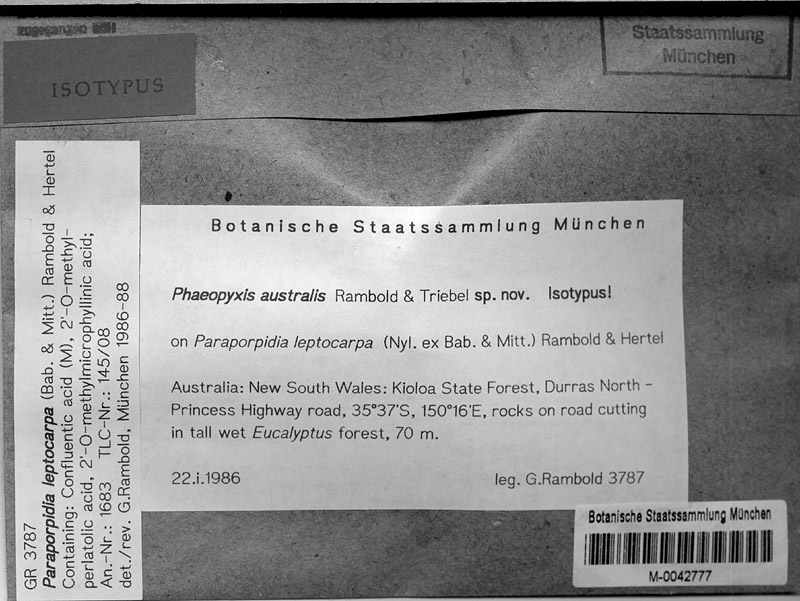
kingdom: Fungi
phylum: Ascomycota
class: Lecanoromycetes
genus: Bachmanniomyces
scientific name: Bachmanniomyces australis
